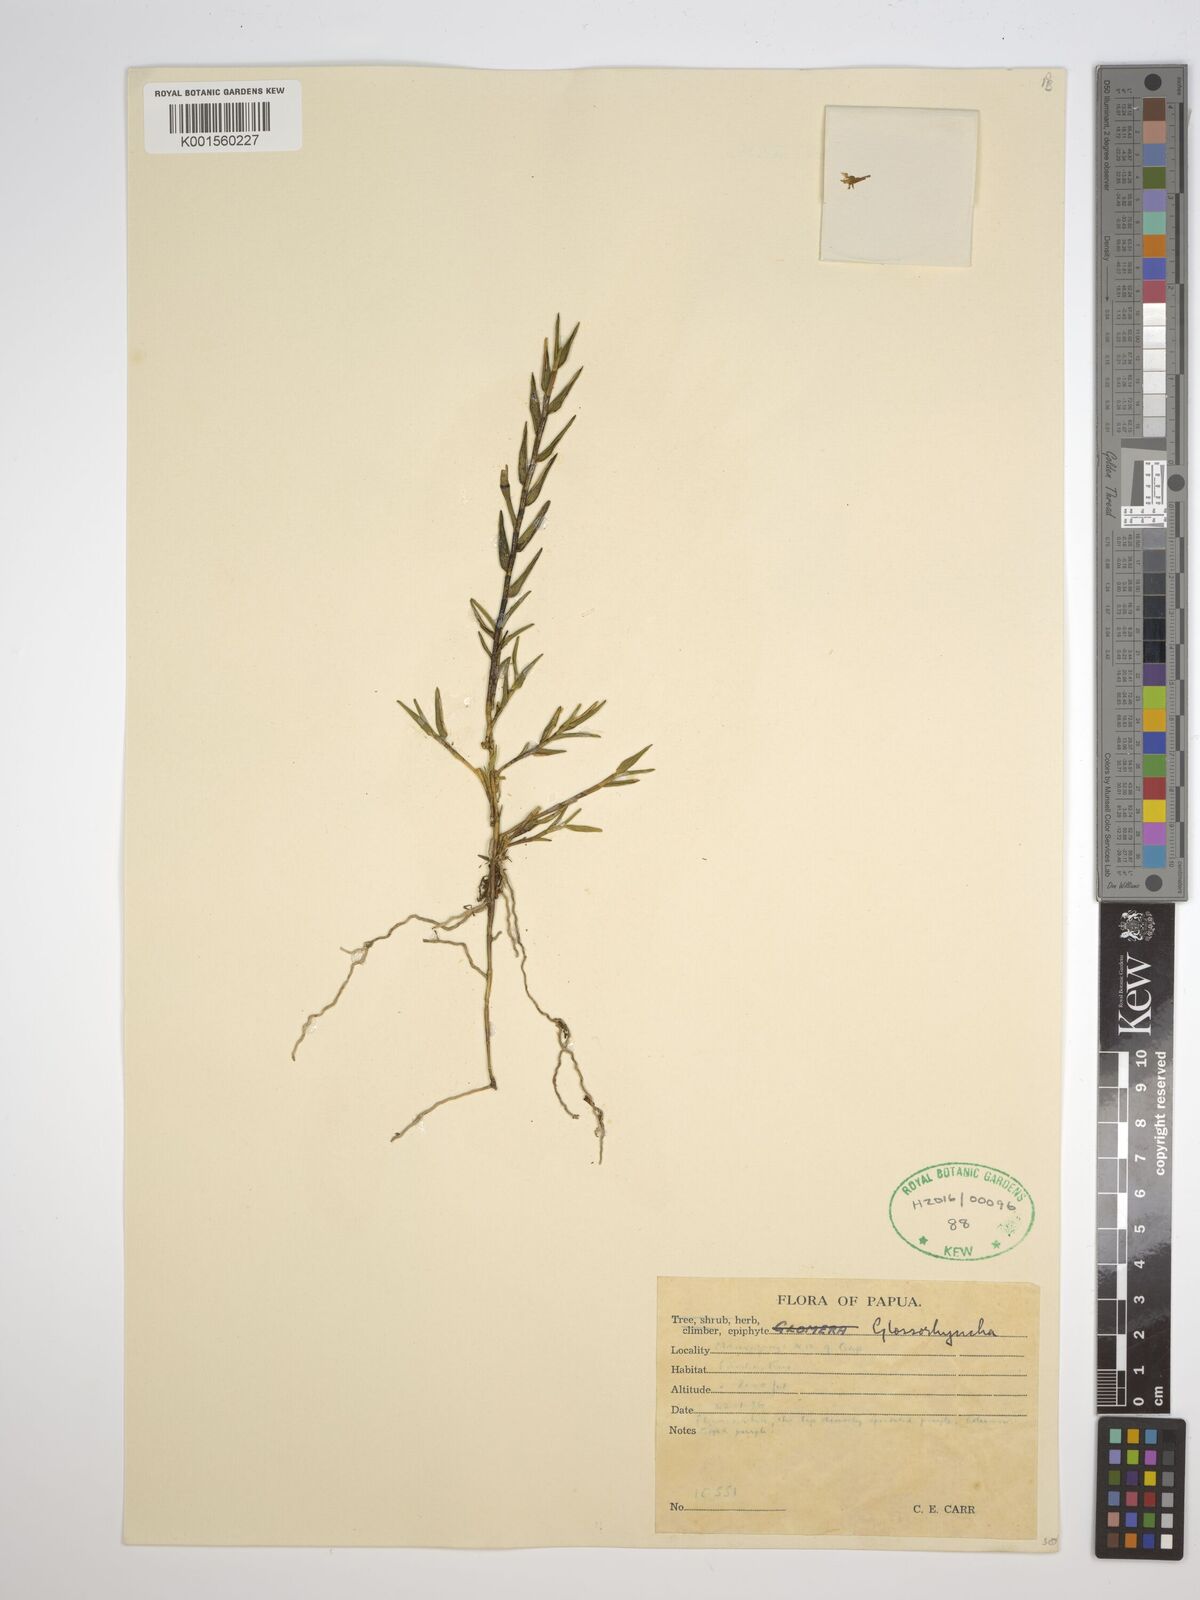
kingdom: Plantae
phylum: Tracheophyta
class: Liliopsida
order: Asparagales
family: Orchidaceae
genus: Glomera
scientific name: Glomera
